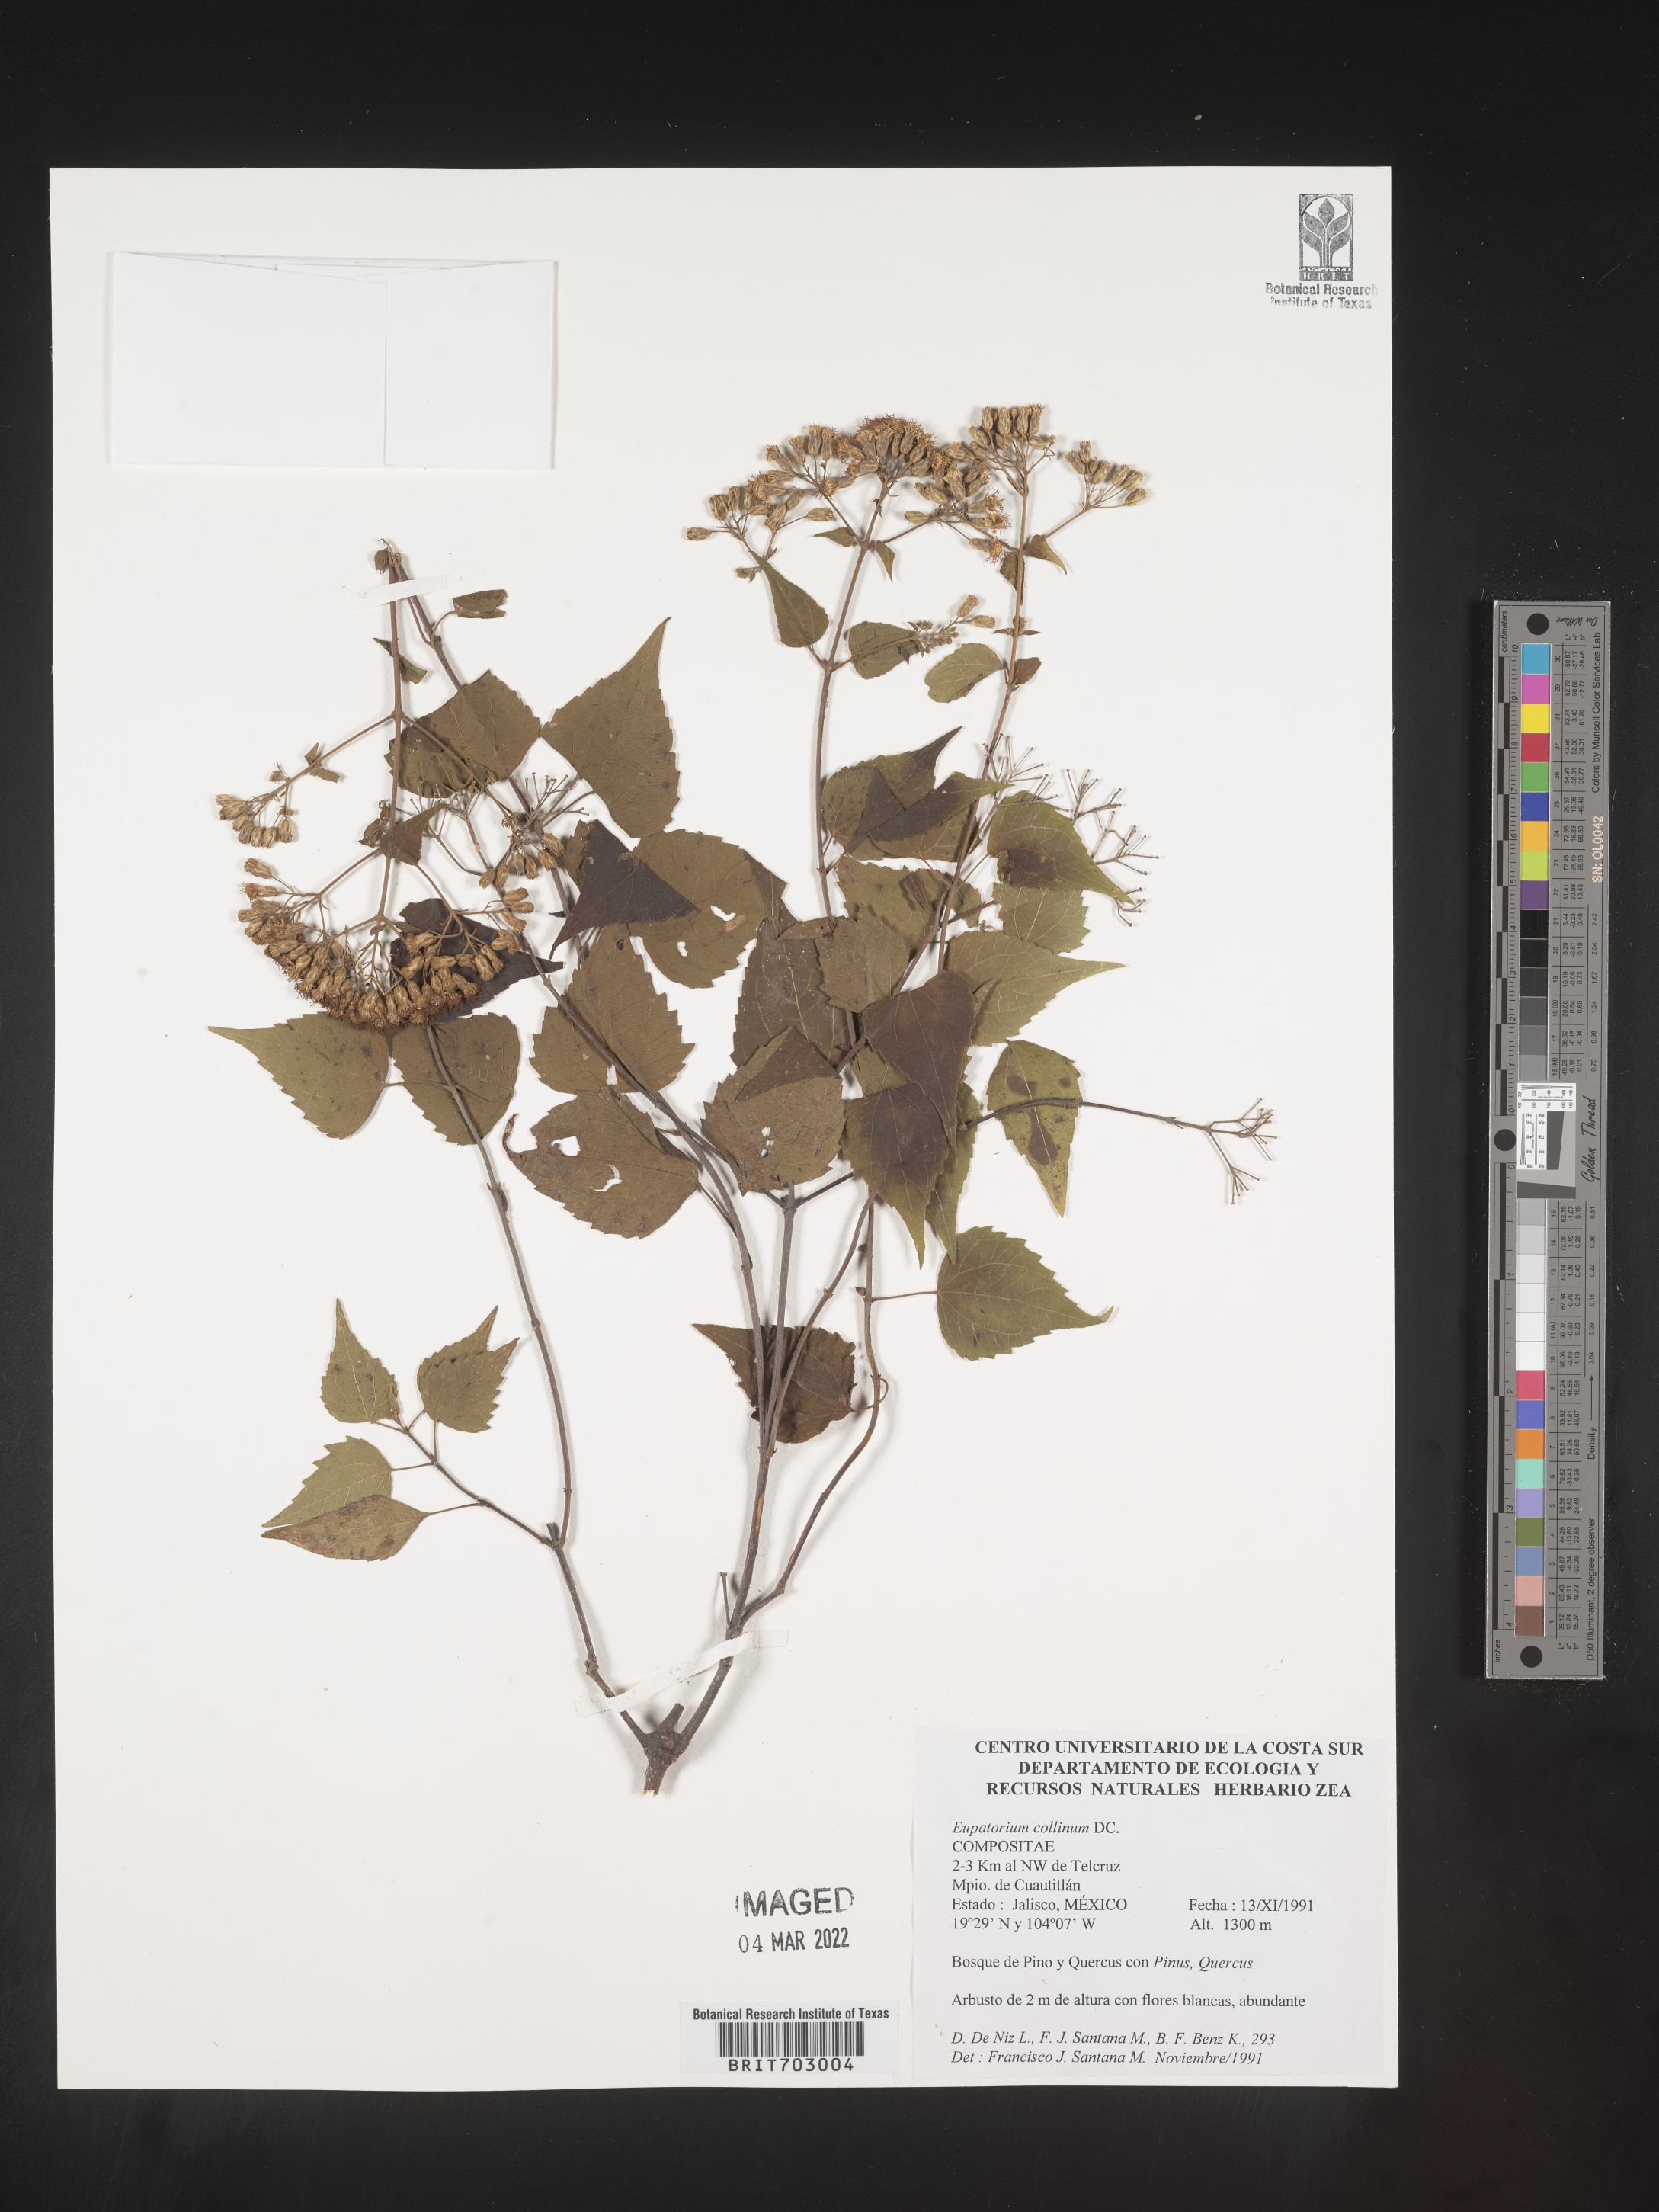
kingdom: Plantae
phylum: Tracheophyta
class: Magnoliopsida
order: Asterales
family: Asteraceae
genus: Eupatorium
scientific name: Eupatorium
